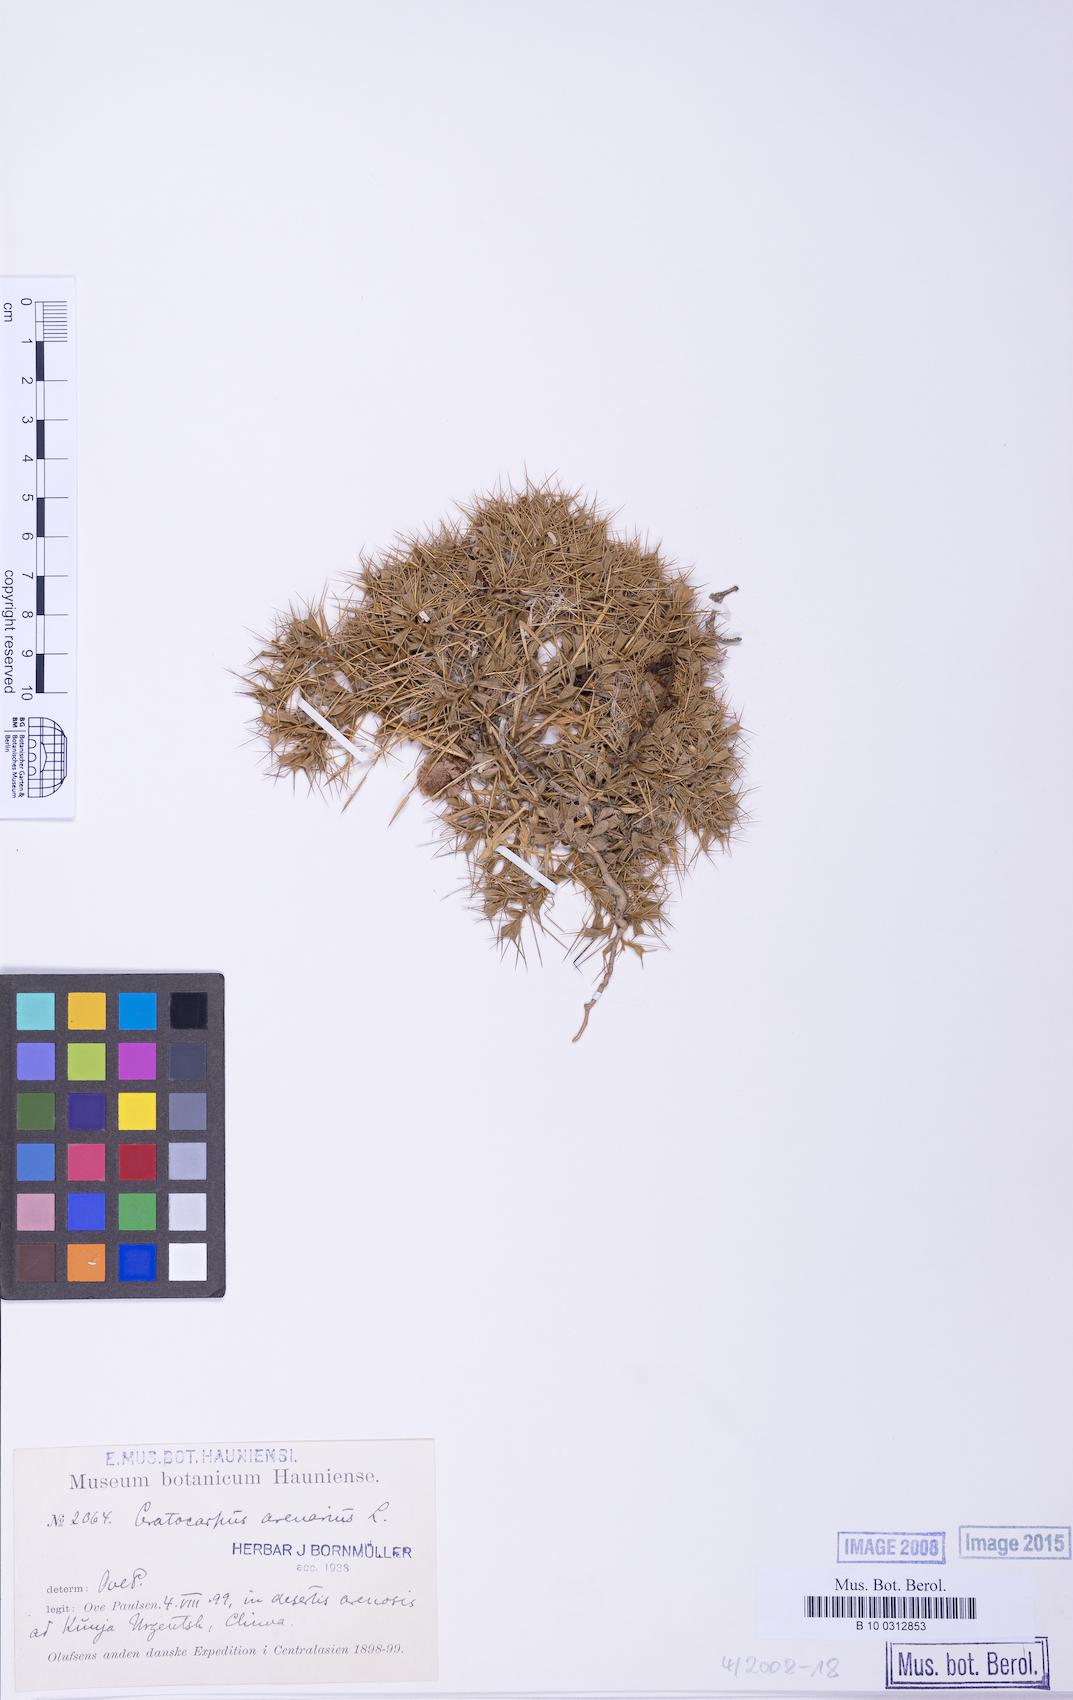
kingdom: Plantae
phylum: Tracheophyta
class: Magnoliopsida
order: Caryophyllales
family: Amaranthaceae
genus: Ceratocarpus
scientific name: Ceratocarpus arenarius
